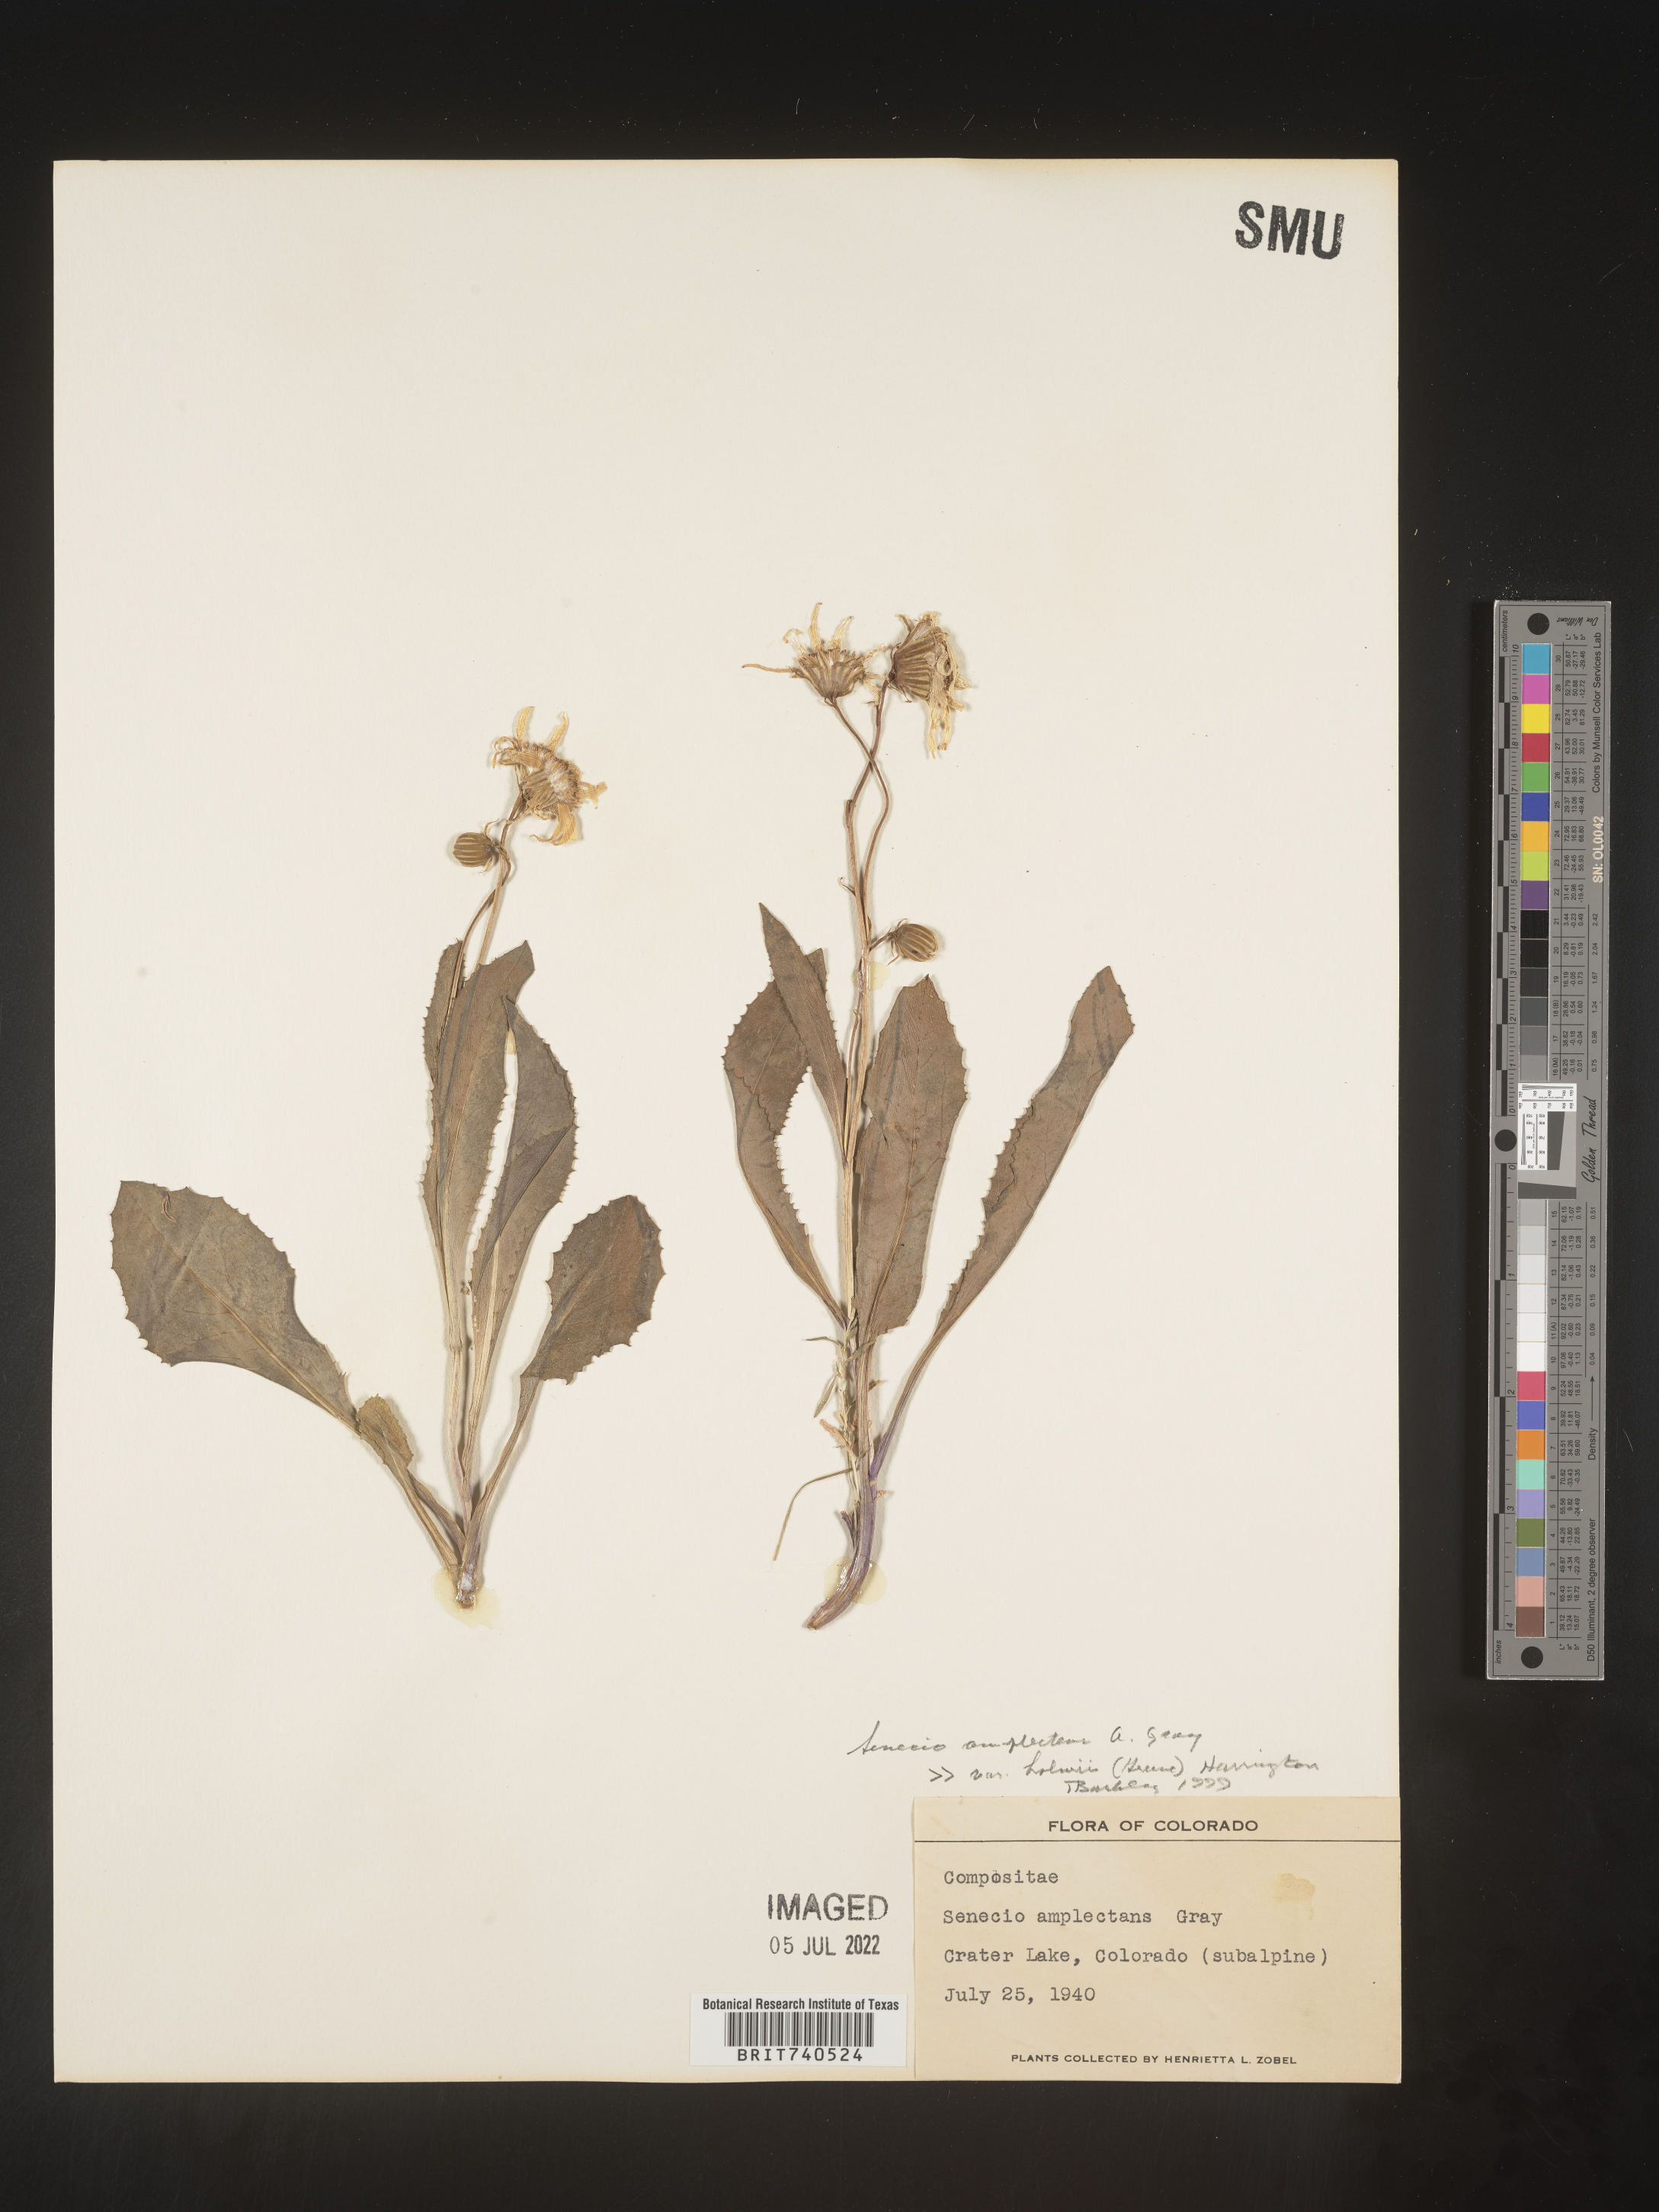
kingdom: Plantae
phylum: Tracheophyta
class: Magnoliopsida
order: Asterales
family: Asteraceae
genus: Senecio
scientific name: Senecio amplectens
